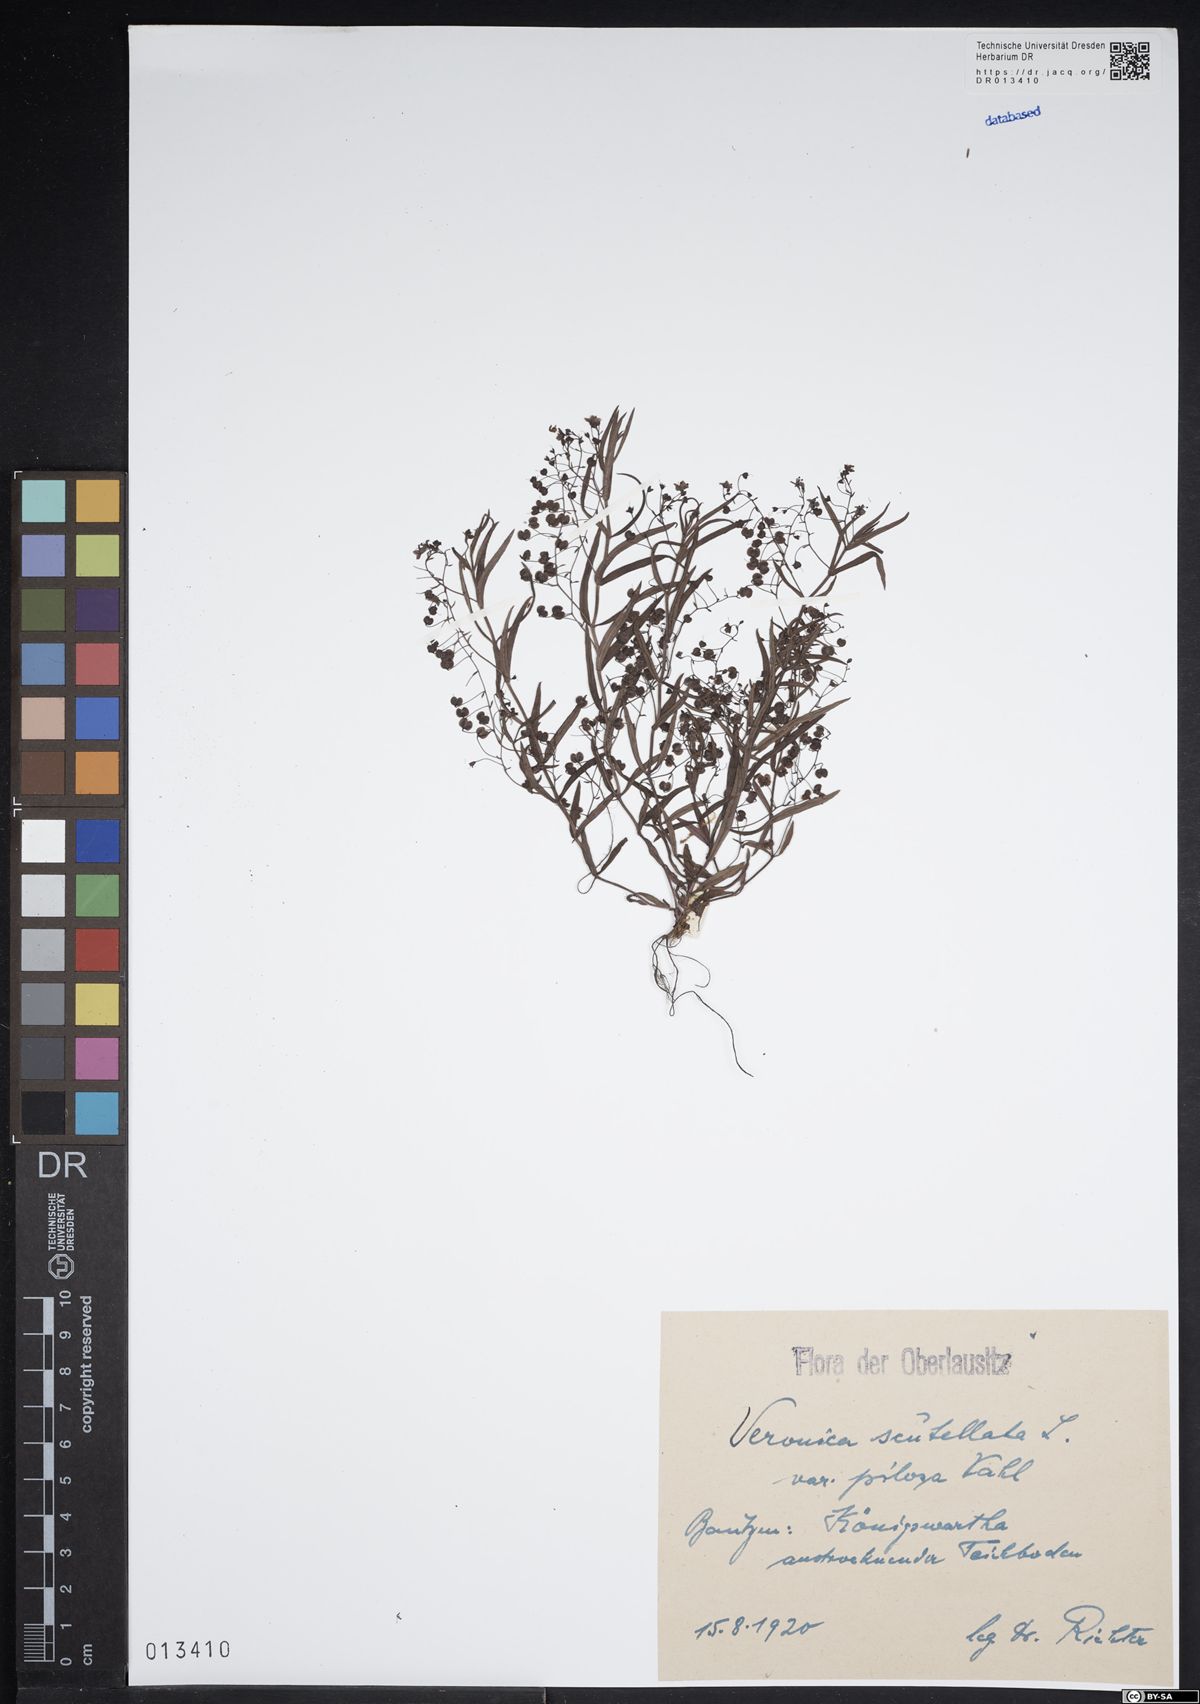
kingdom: Plantae
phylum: Tracheophyta
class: Magnoliopsida
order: Lamiales
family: Plantaginaceae
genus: Veronica
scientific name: Veronica scutellata
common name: Marsh speedwell
